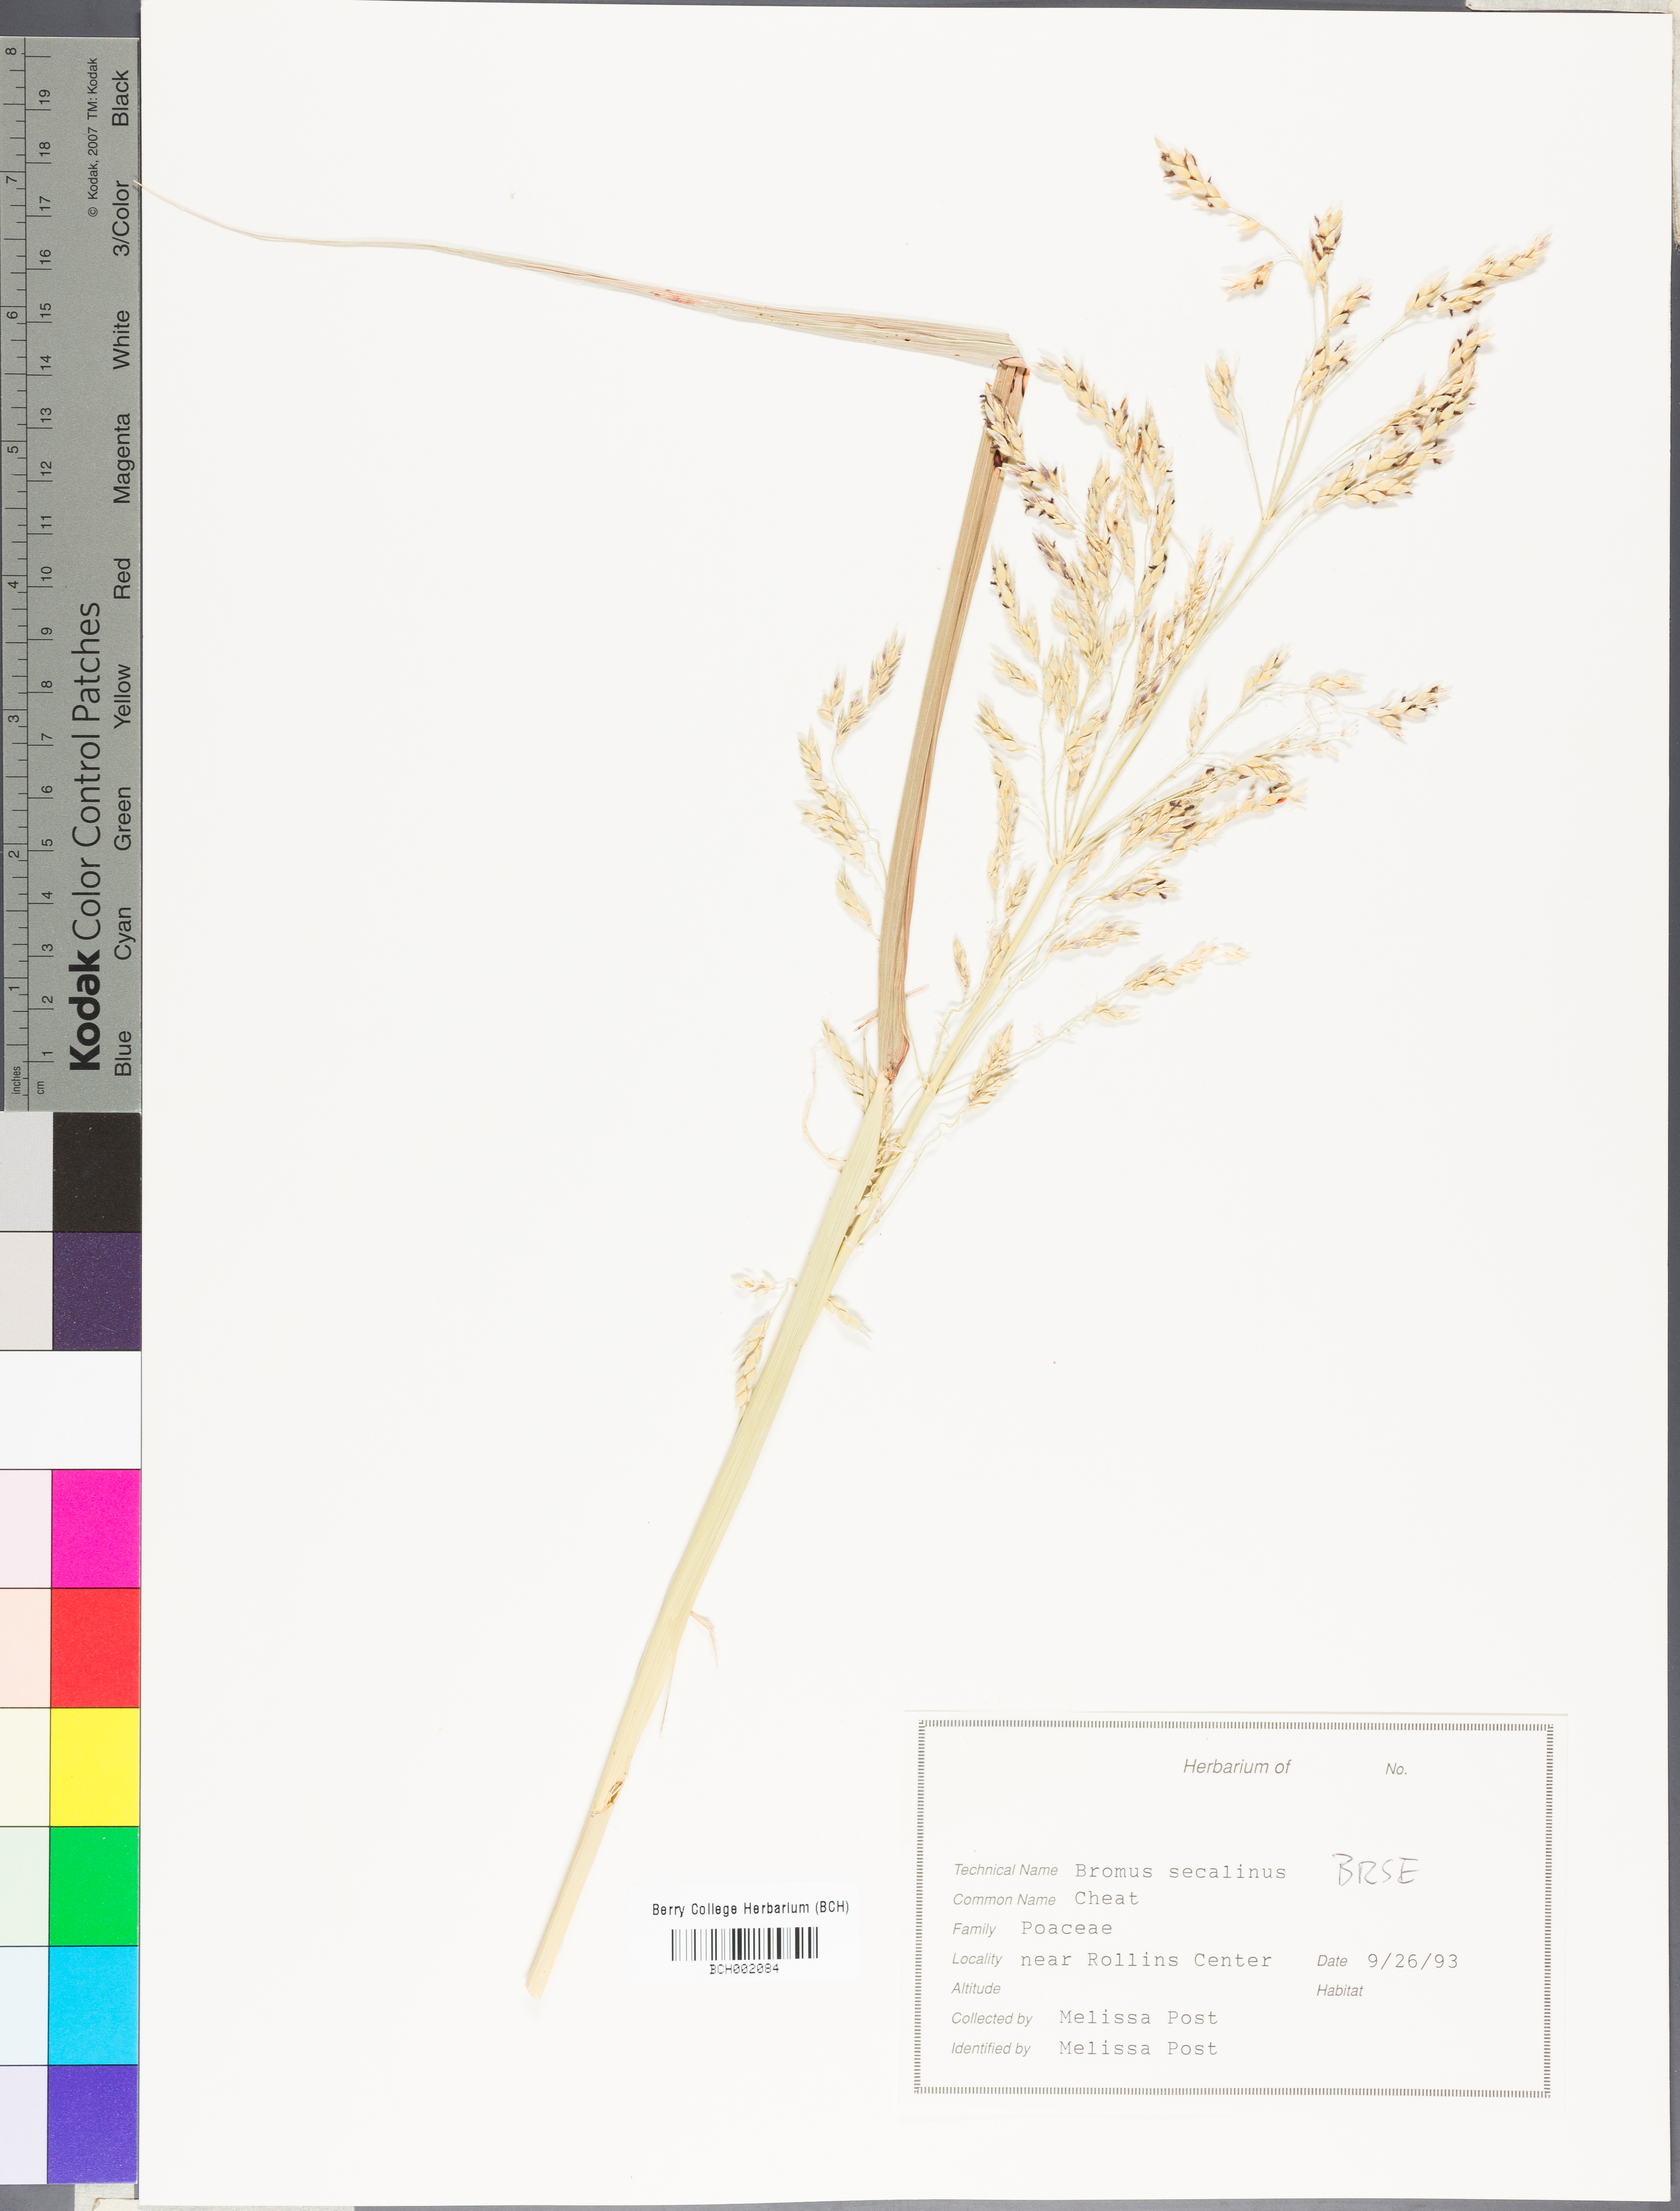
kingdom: Plantae
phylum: Tracheophyta
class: Liliopsida
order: Poales
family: Poaceae
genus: Bromus
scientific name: Bromus secalinus
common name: Rye brome
